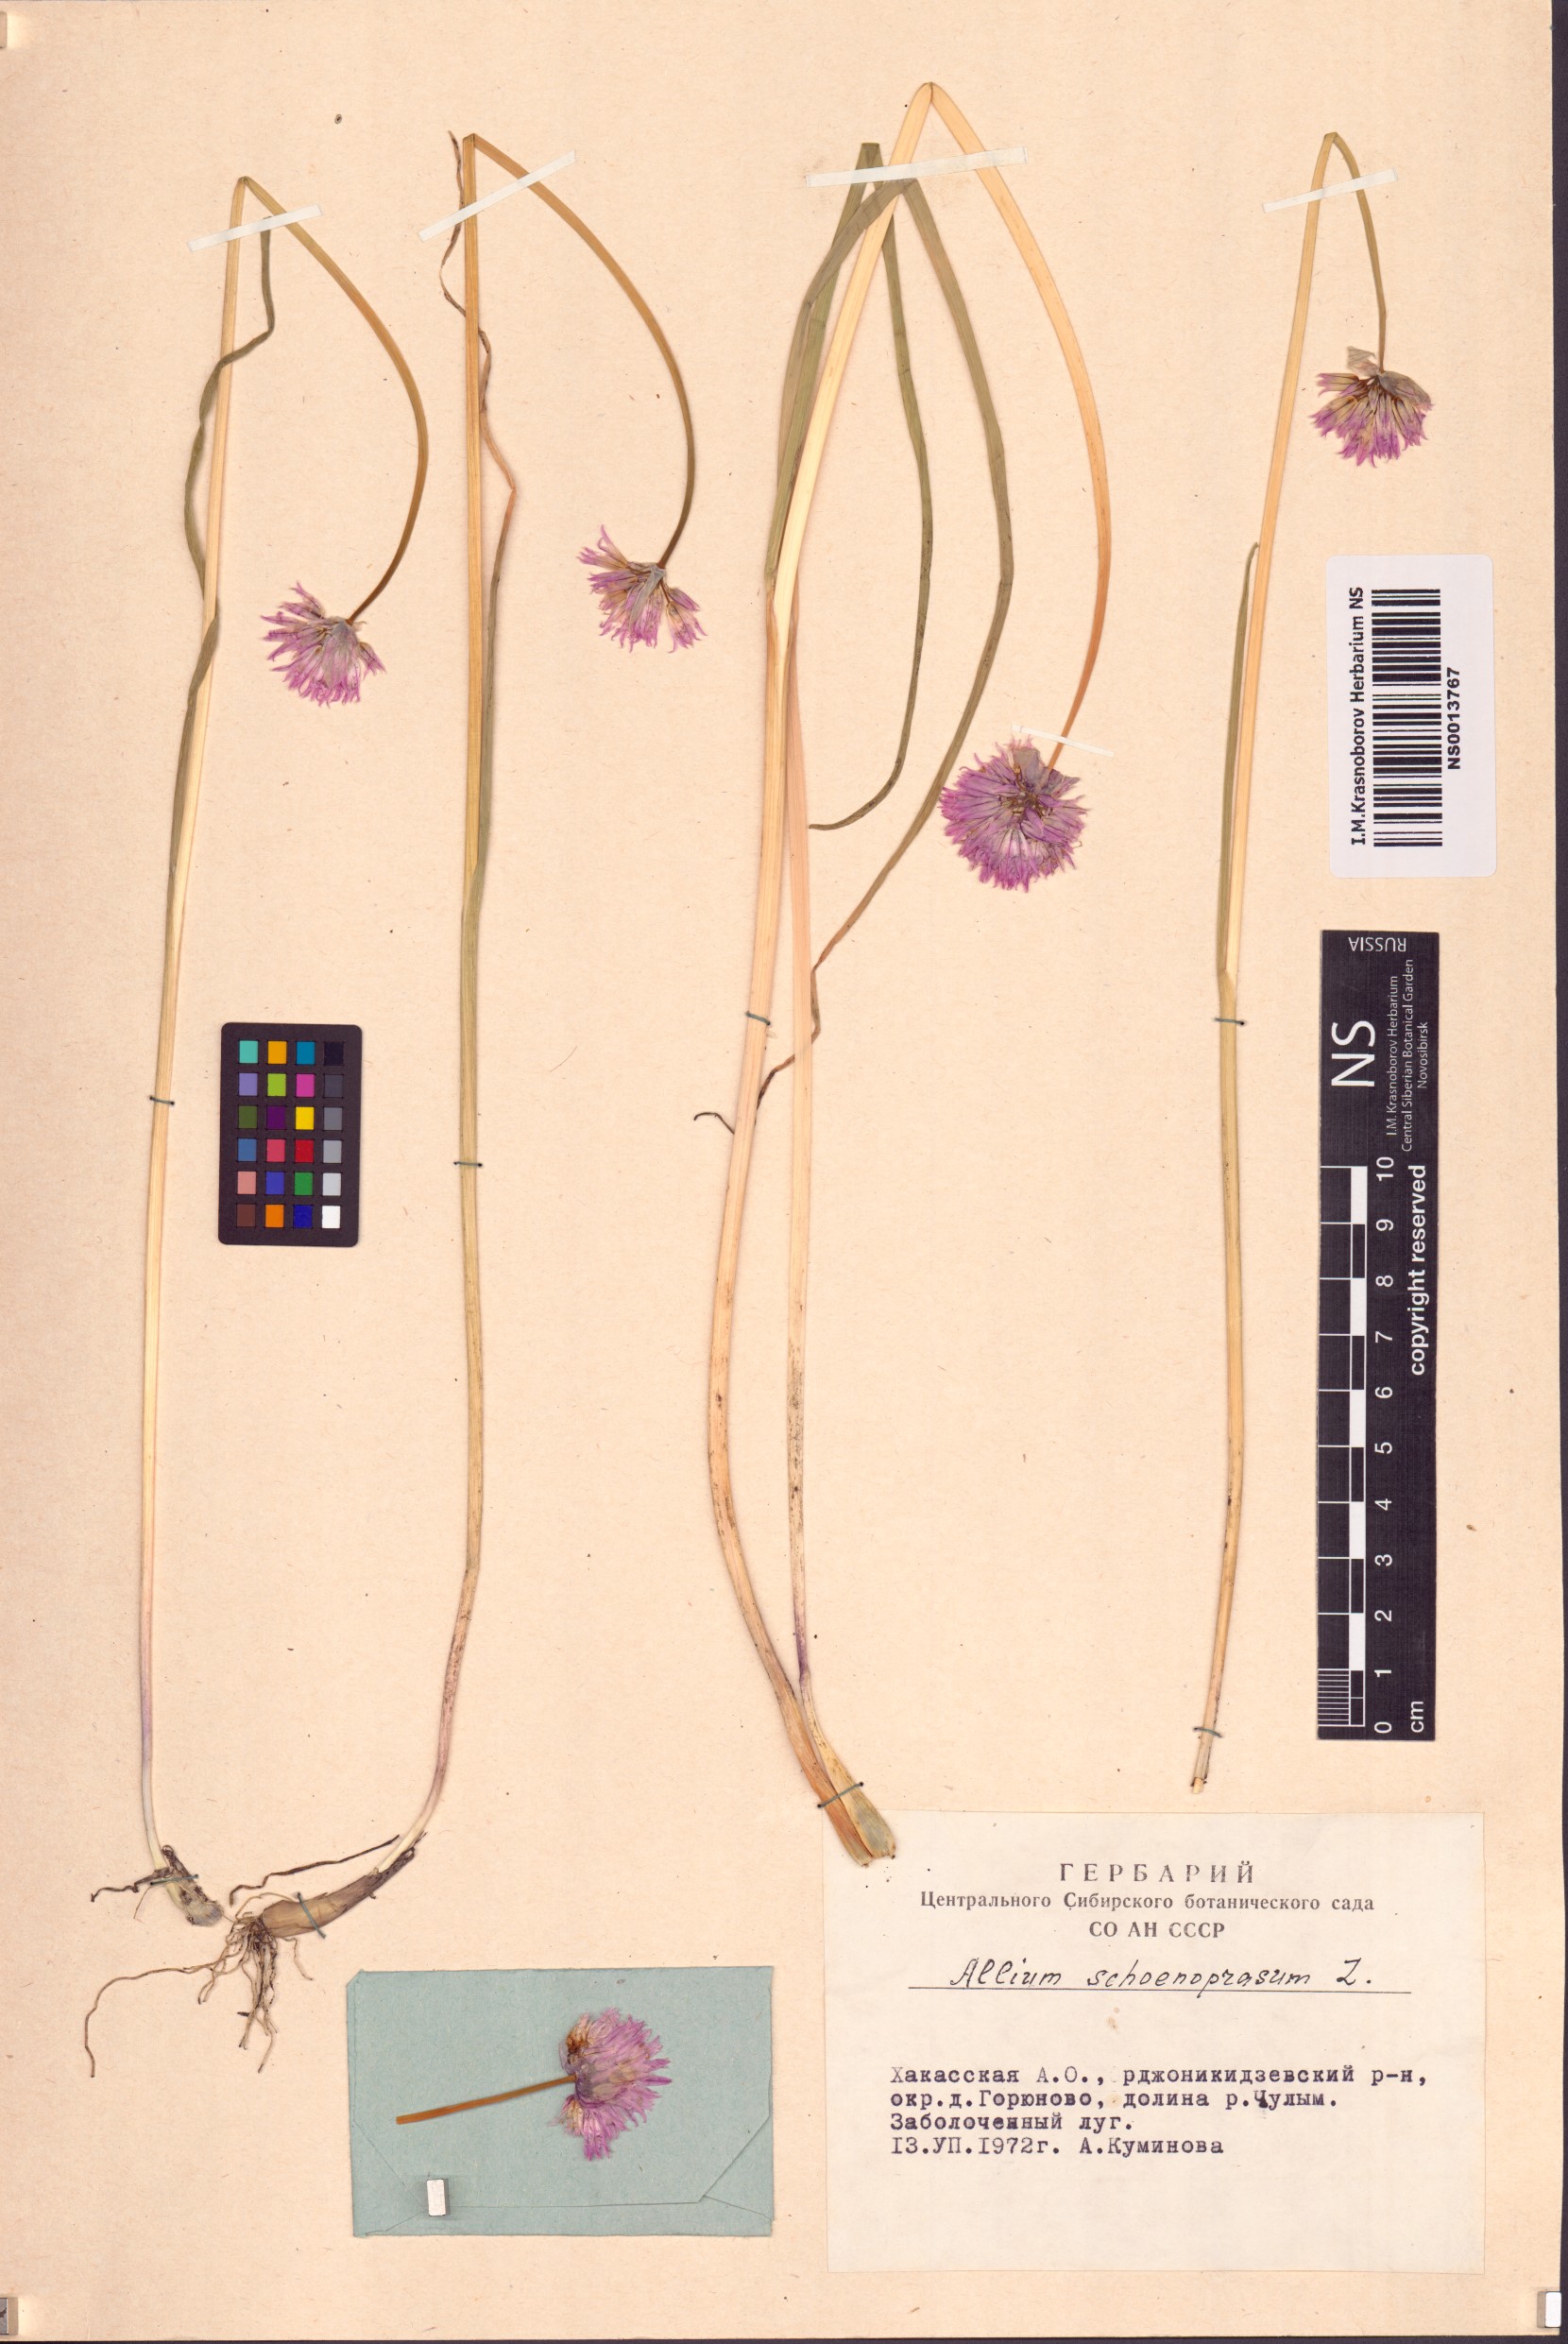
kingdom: Plantae
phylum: Tracheophyta
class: Liliopsida
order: Asparagales
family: Amaryllidaceae
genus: Allium
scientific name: Allium schoenoprasum
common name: Chives
